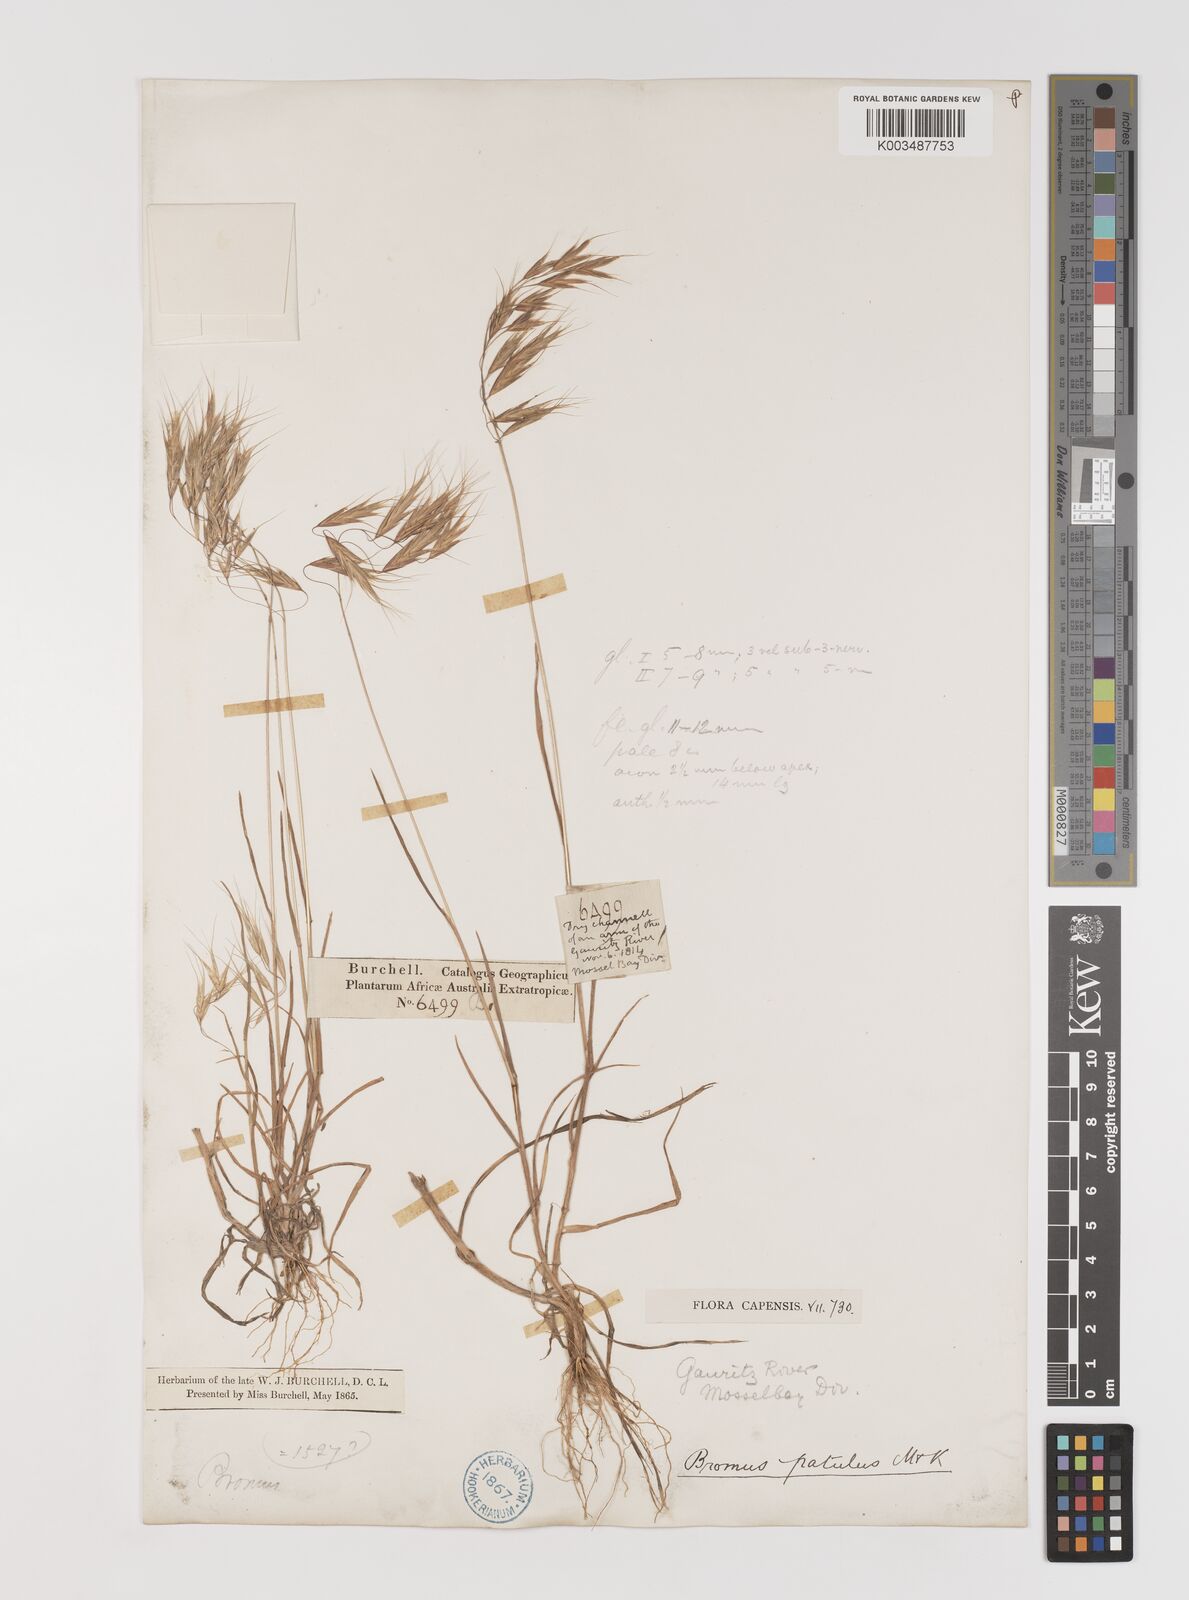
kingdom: Plantae
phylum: Tracheophyta
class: Liliopsida
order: Poales
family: Poaceae
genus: Bromus
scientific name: Bromus pectinatus
